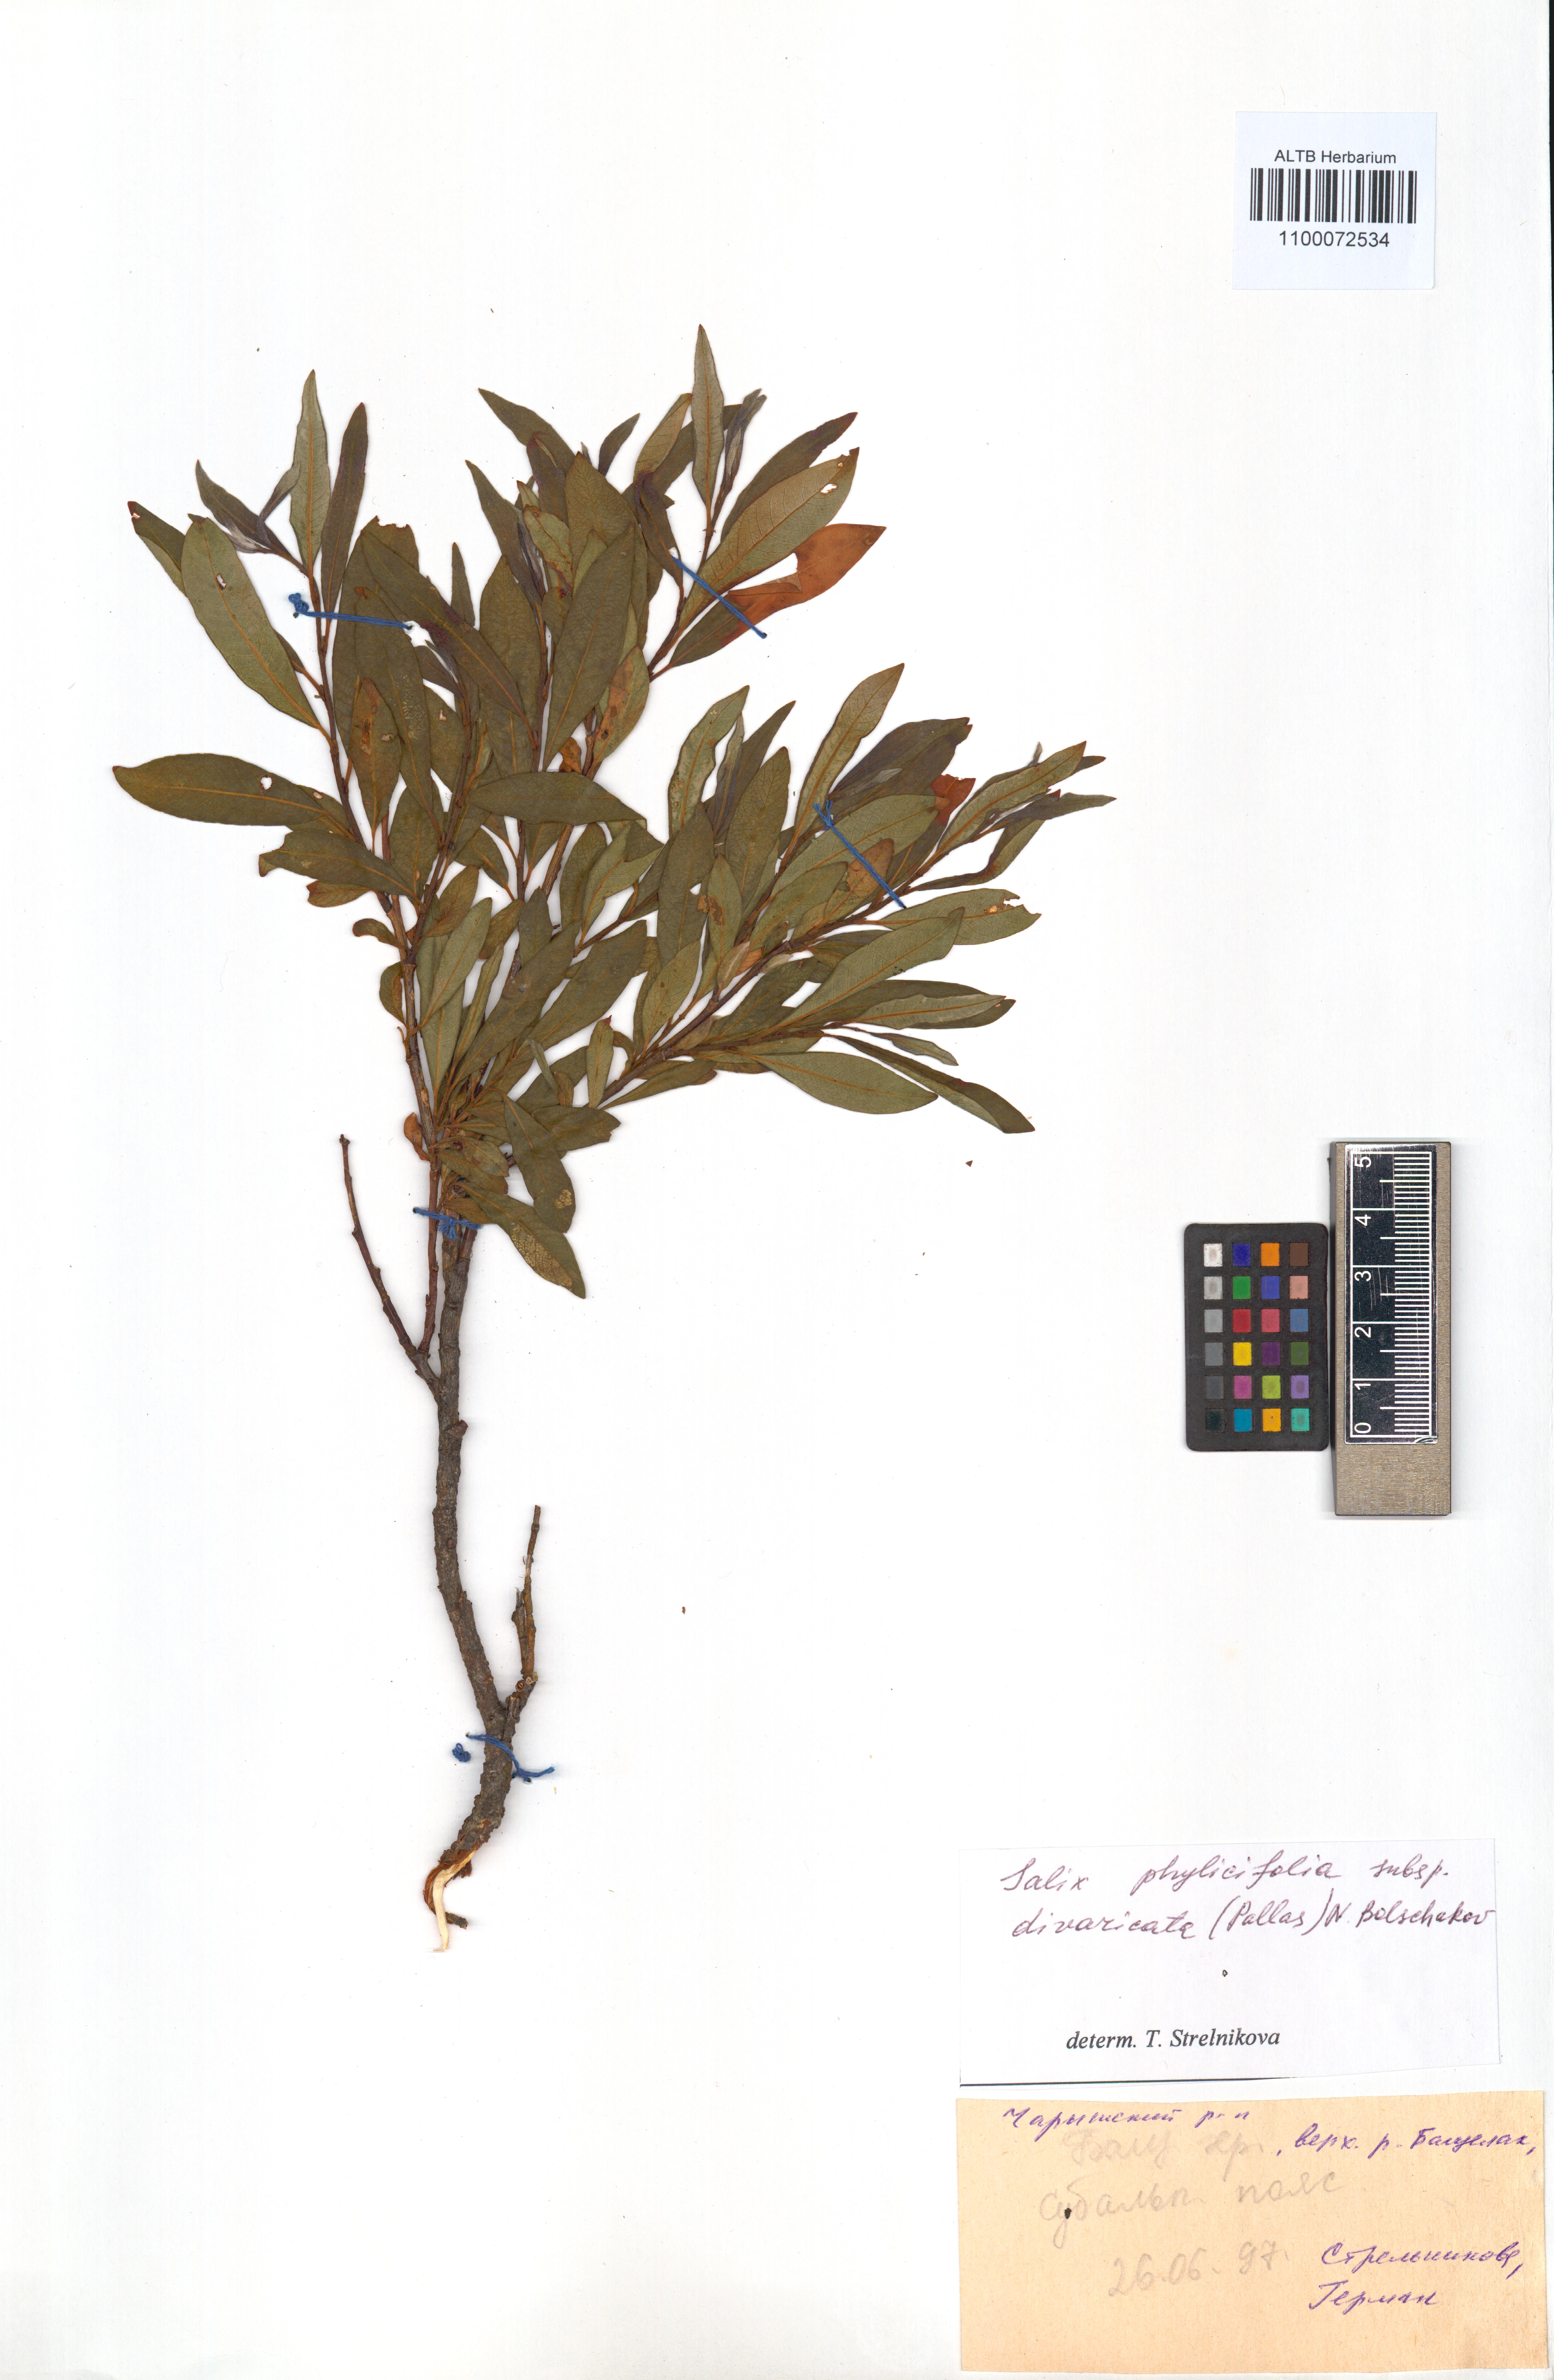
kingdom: Plantae
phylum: Tracheophyta
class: Magnoliopsida
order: Malpighiales
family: Salicaceae
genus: Salix
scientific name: Salix phylicifolia
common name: Tea-leaved willow
